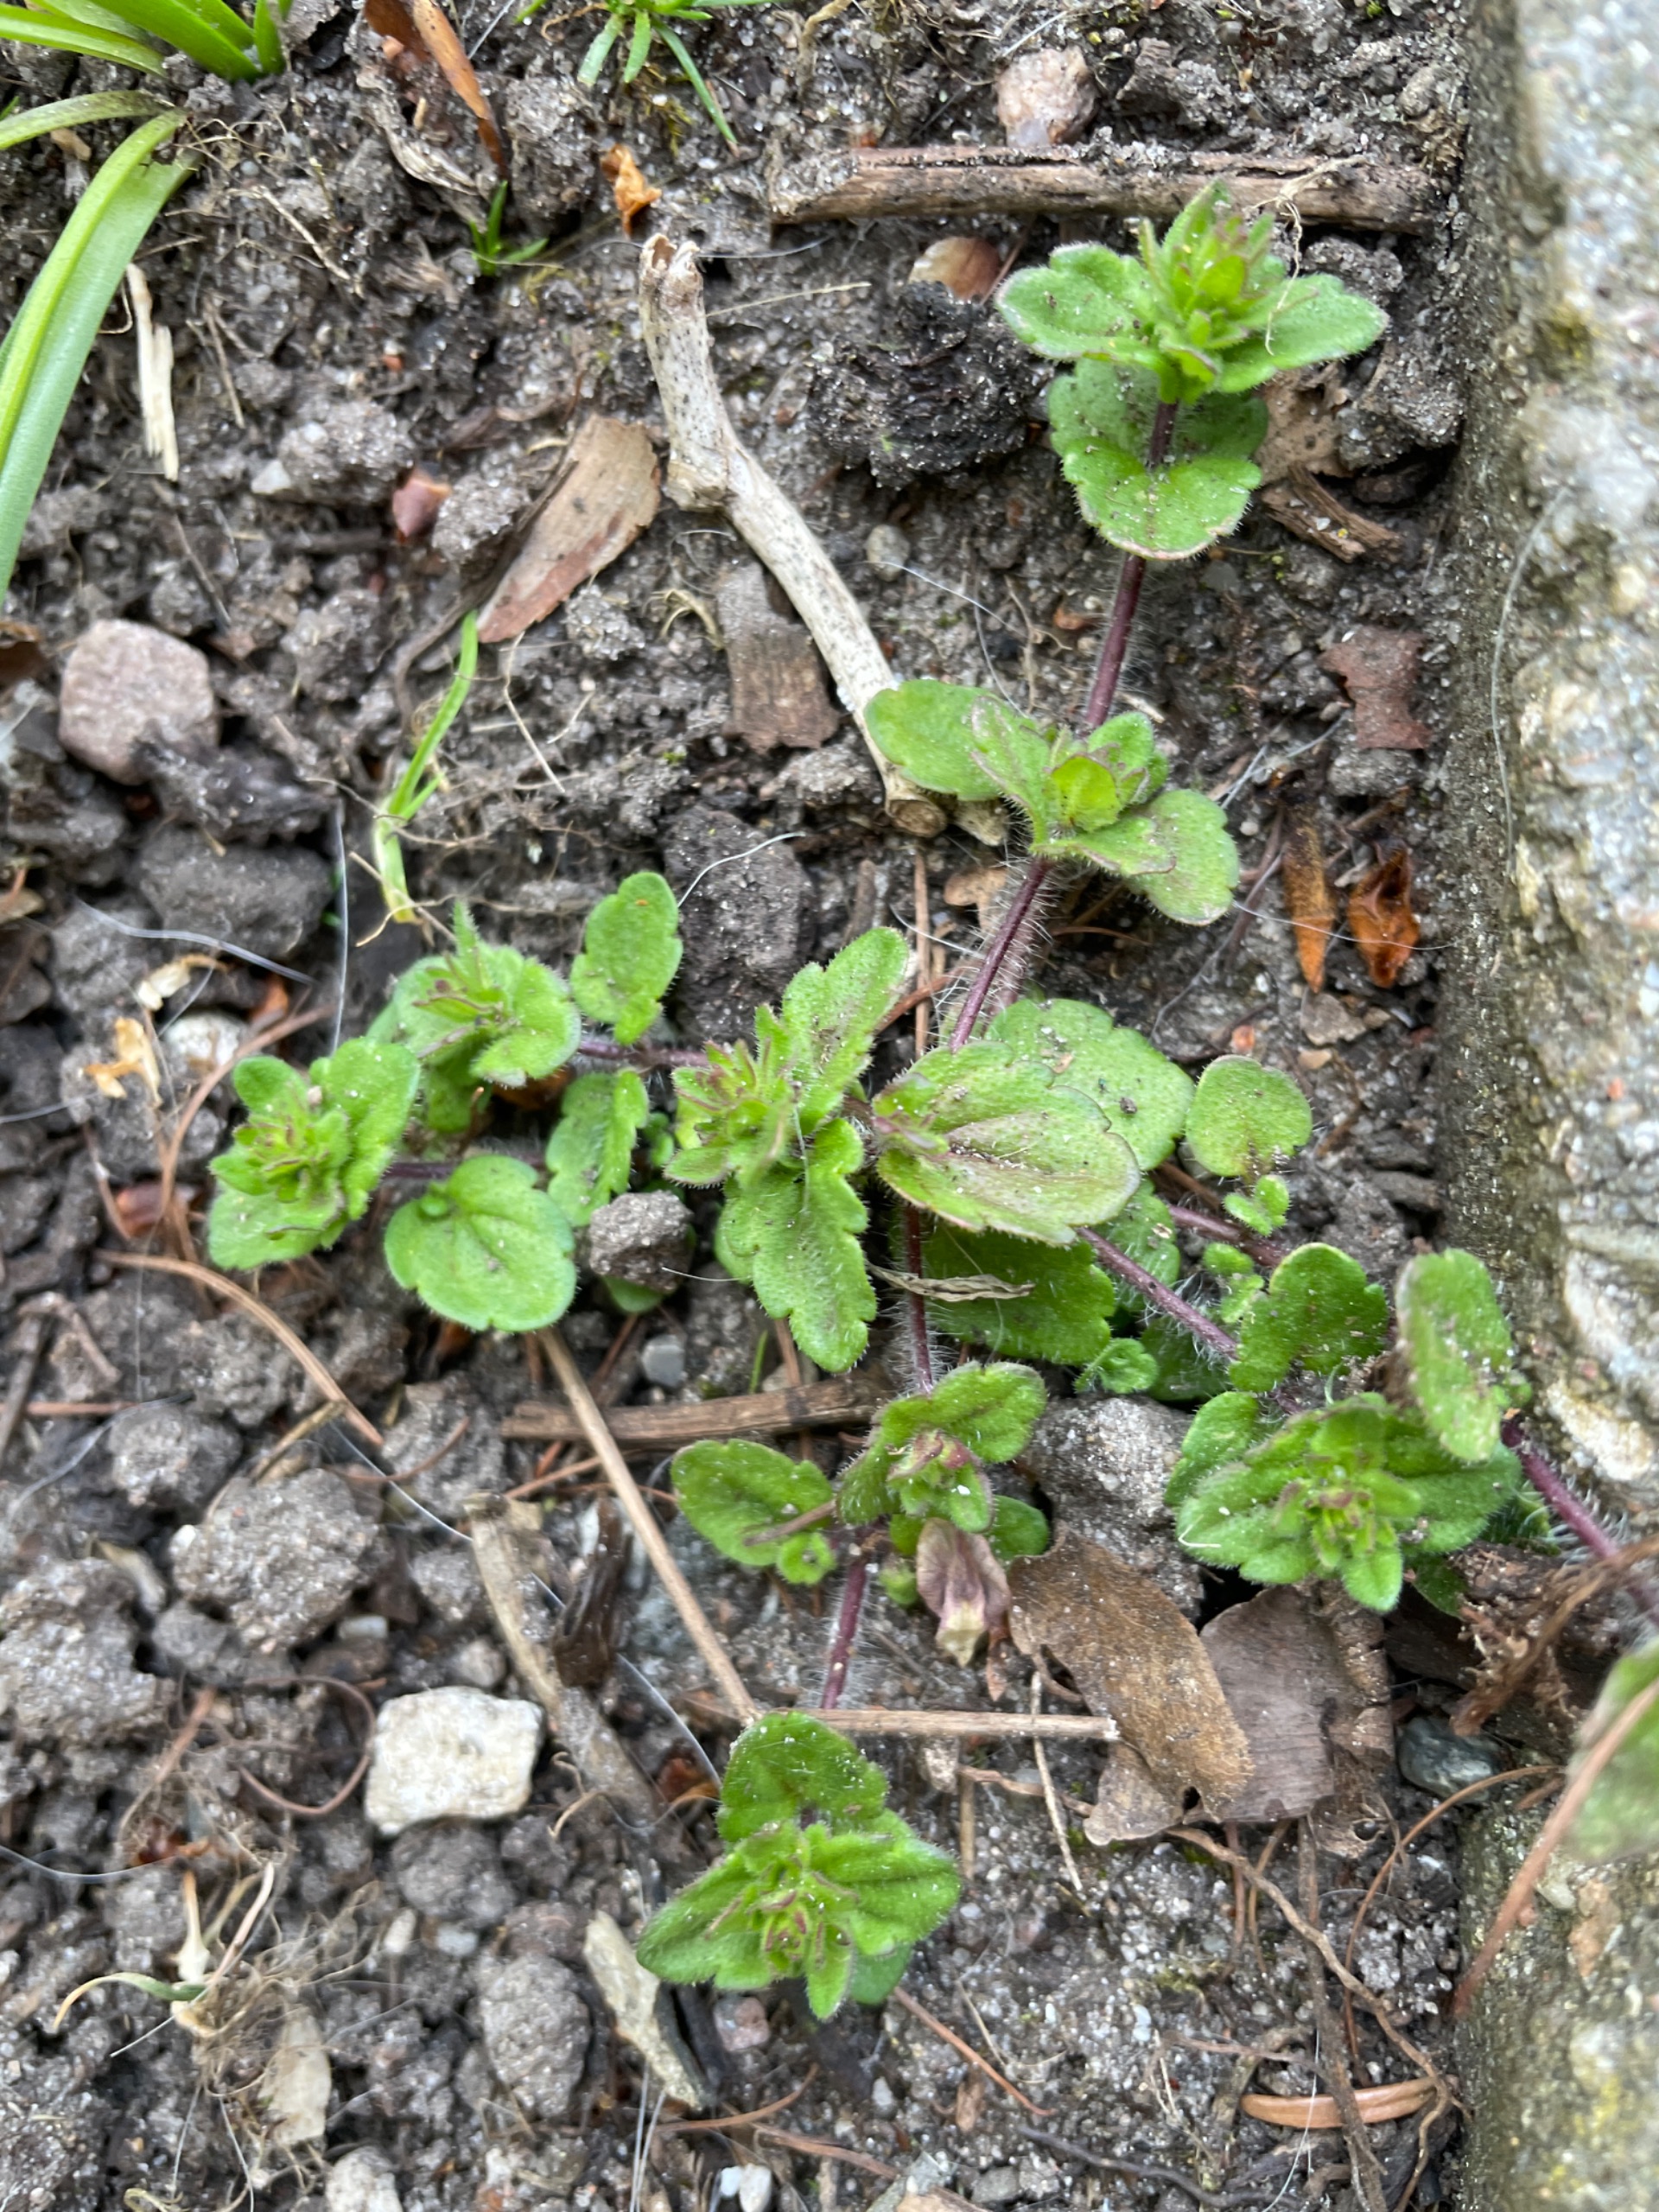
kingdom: Plantae
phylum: Tracheophyta
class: Magnoliopsida
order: Lamiales
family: Plantaginaceae
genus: Veronica
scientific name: Veronica arvensis
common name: Mark-ærenpris
